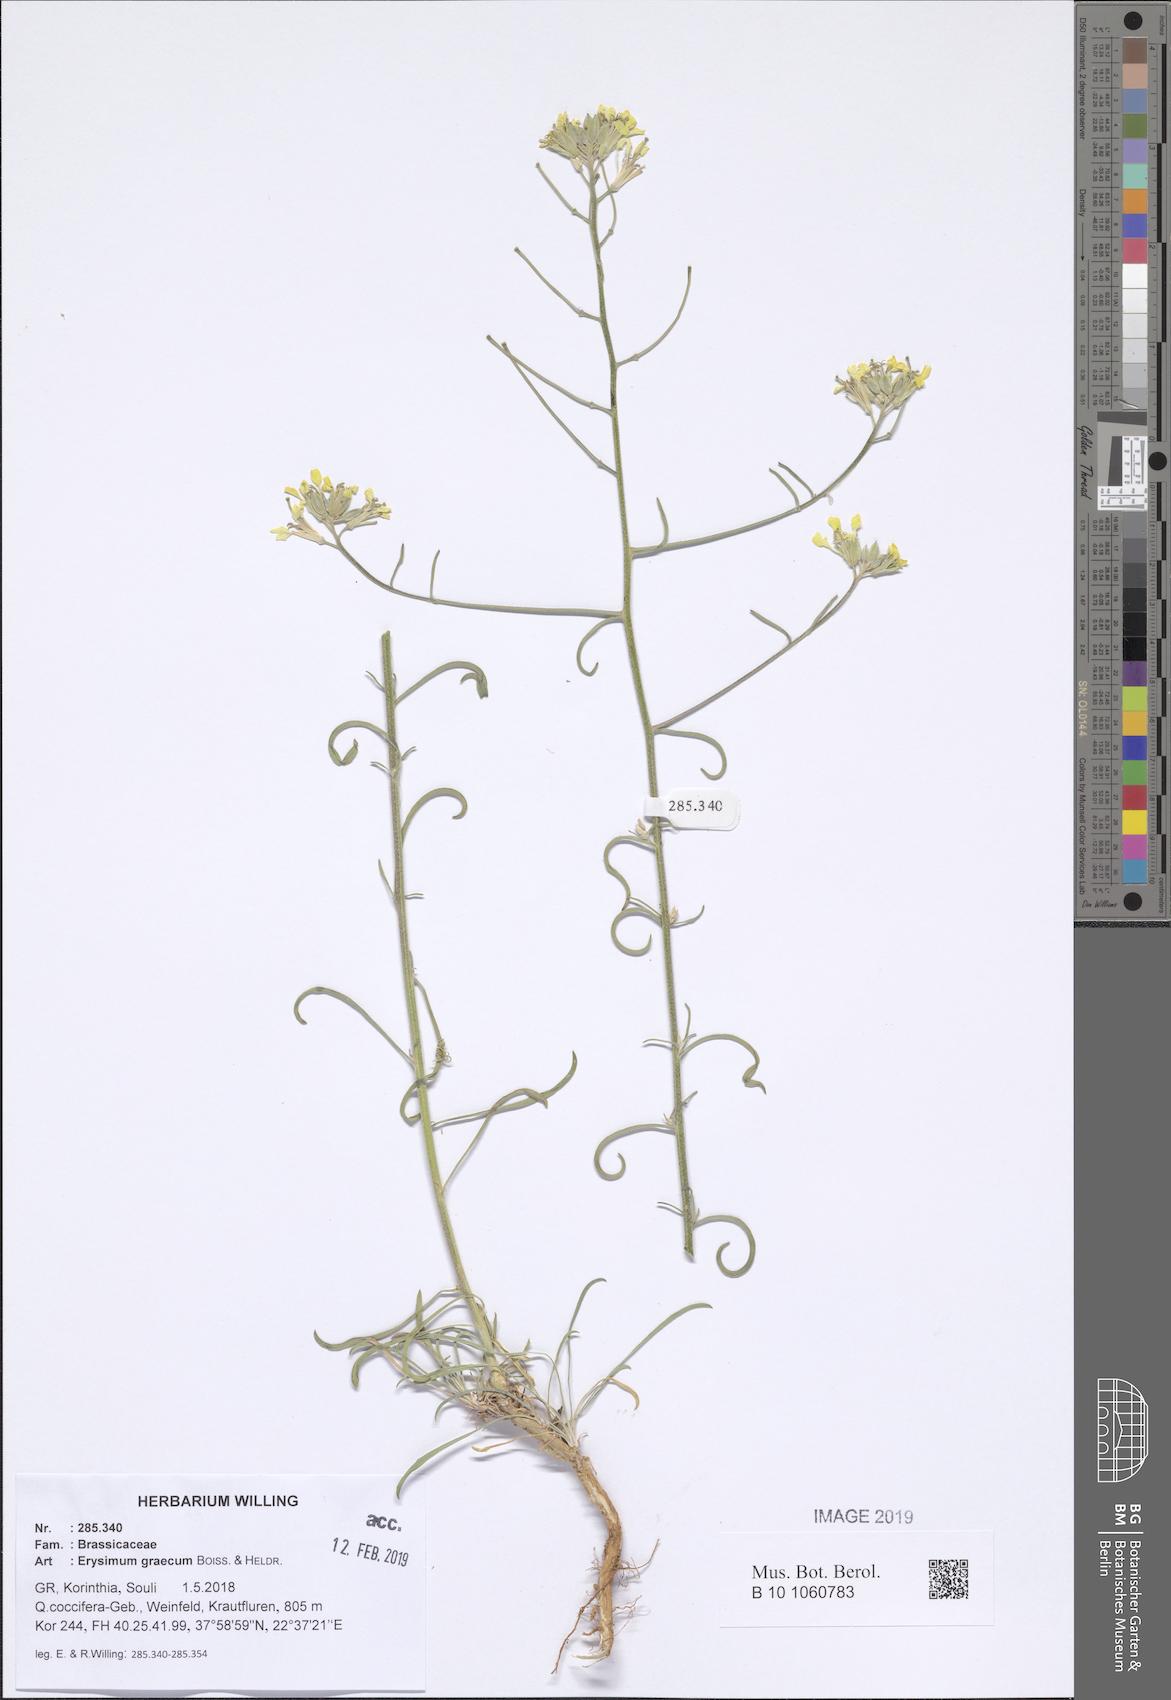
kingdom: Plantae
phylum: Tracheophyta
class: Magnoliopsida
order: Brassicales
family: Brassicaceae
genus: Erysimum
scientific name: Erysimum graecum
